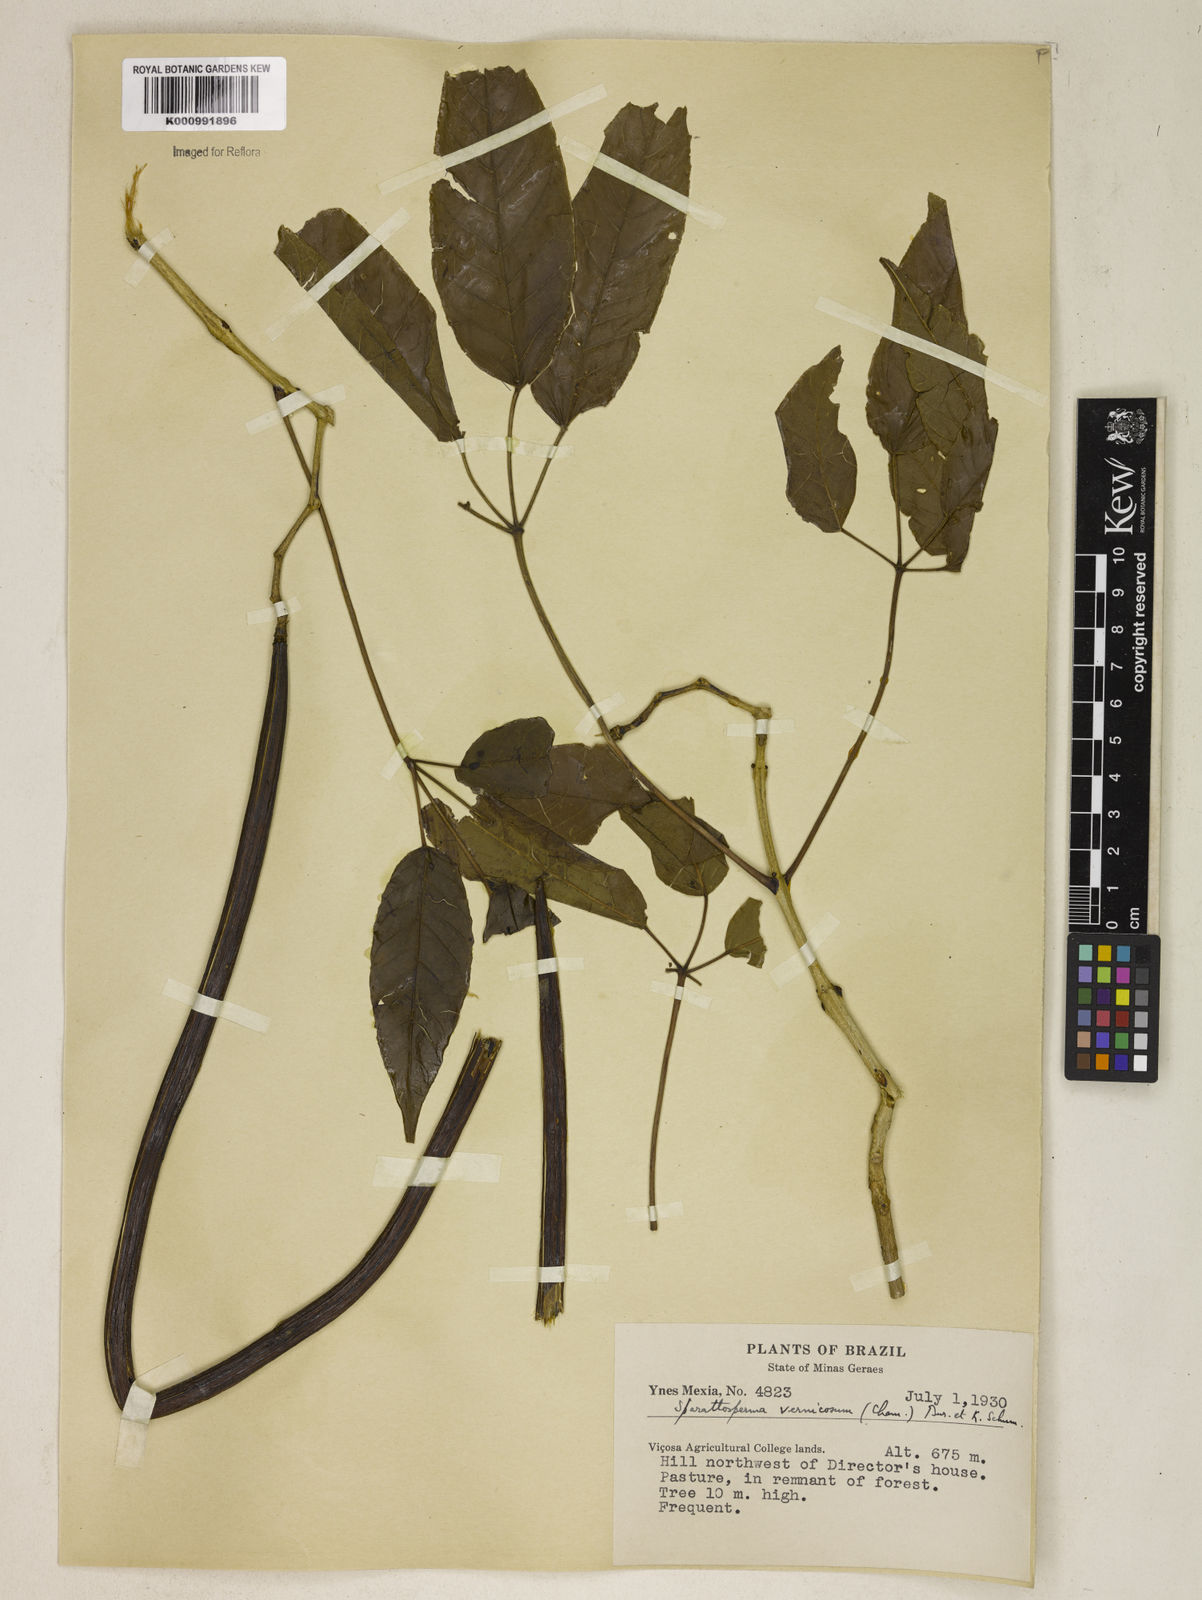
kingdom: Plantae
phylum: Tracheophyta
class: Magnoliopsida
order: Lamiales
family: Bignoniaceae
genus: Sparattosperma
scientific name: Sparattosperma leucanthum
